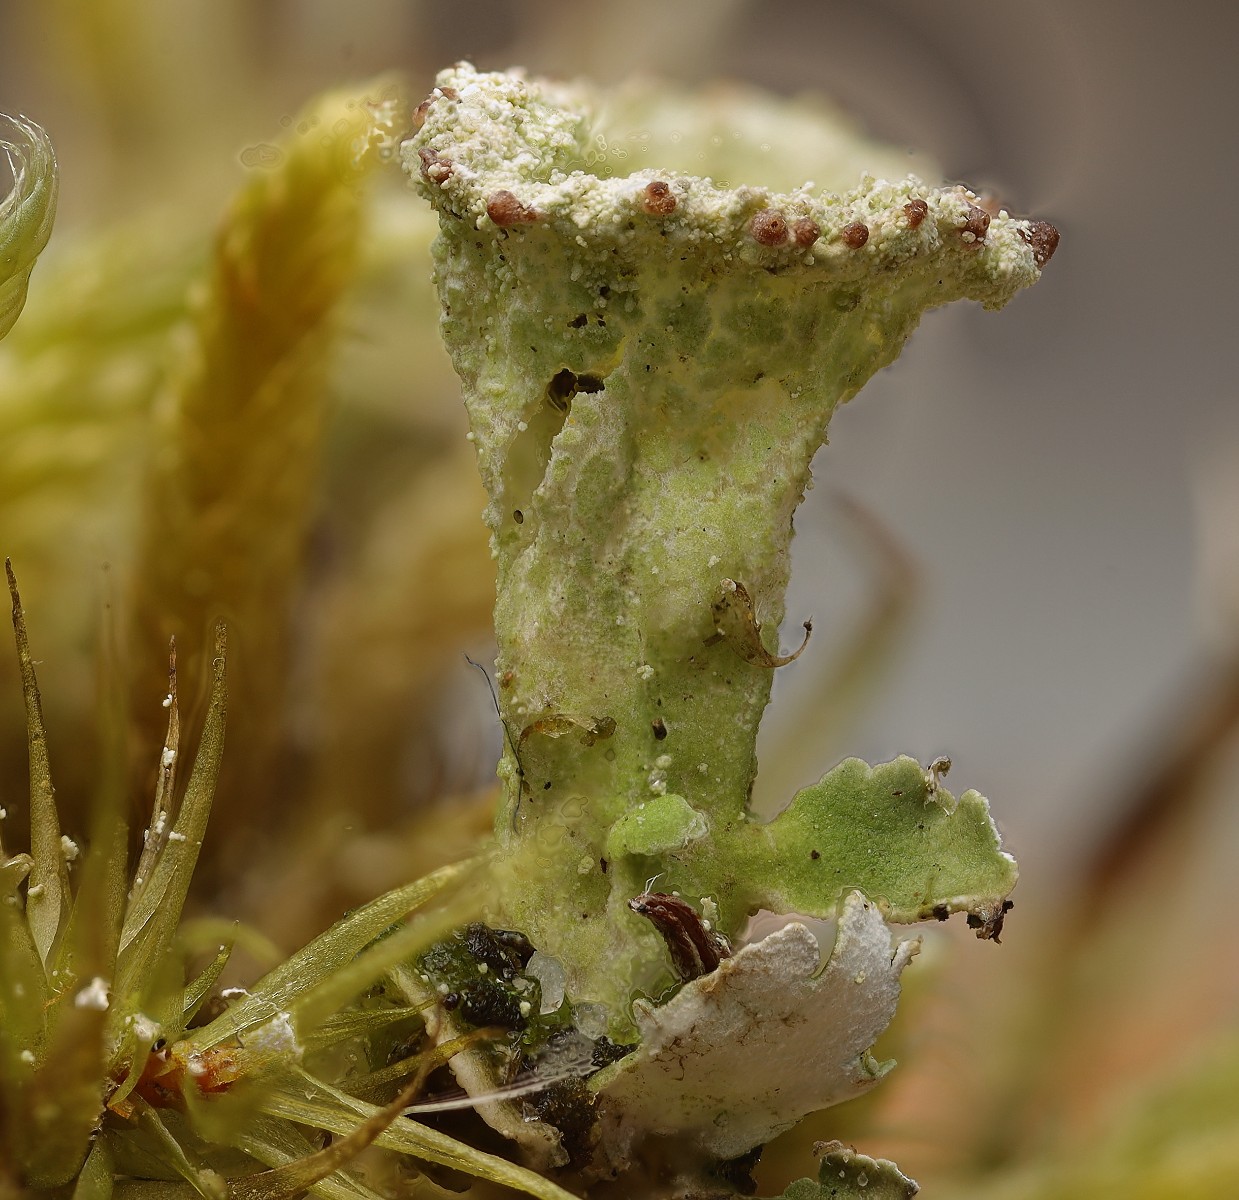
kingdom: Fungi
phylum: Ascomycota
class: Lecanoromycetes
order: Lecanorales
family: Cladoniaceae
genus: Cladonia
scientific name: Cladonia
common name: brungrøn bægerlav
